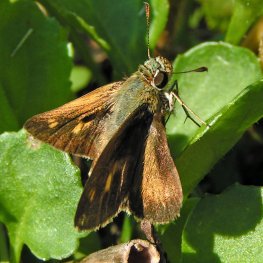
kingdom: Animalia
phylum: Arthropoda
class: Insecta
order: Lepidoptera
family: Hesperiidae
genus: Polites
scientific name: Polites egeremet
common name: Northern Broken-Dash
